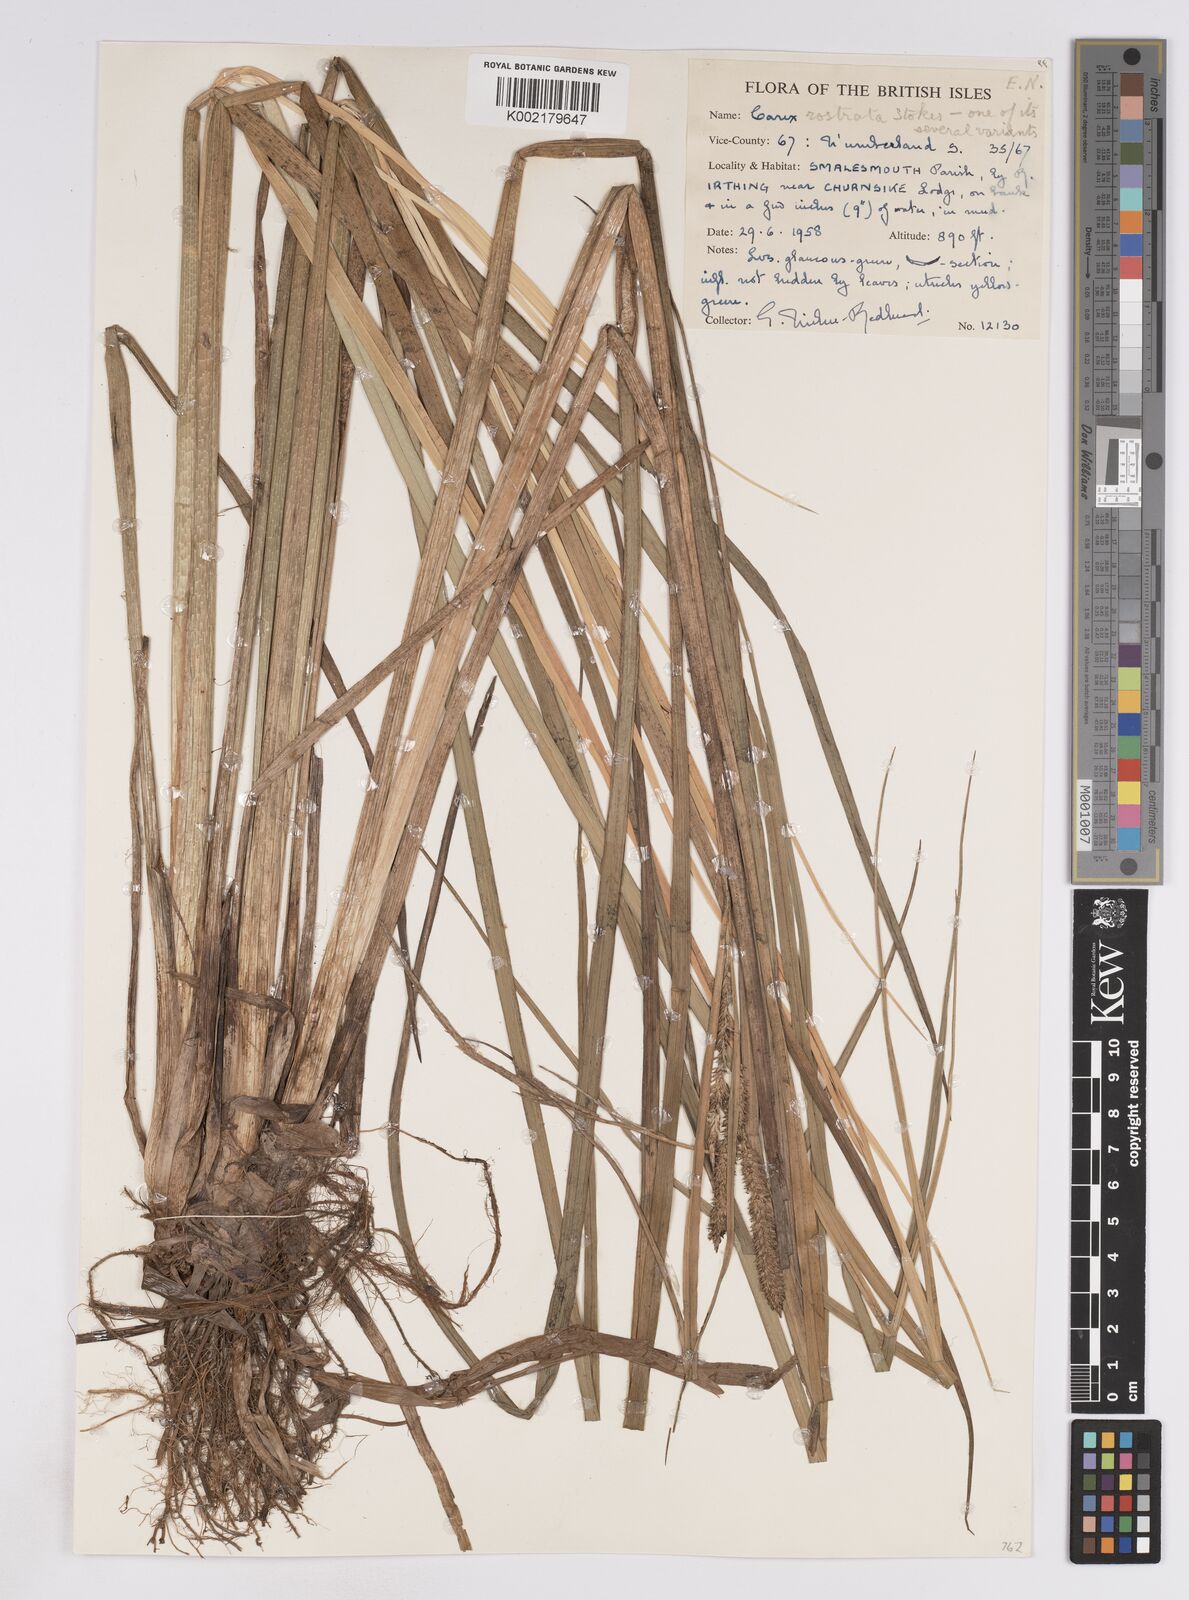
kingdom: Plantae
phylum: Tracheophyta
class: Liliopsida
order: Poales
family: Cyperaceae
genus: Carex
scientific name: Carex rostrata
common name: Bottle sedge
